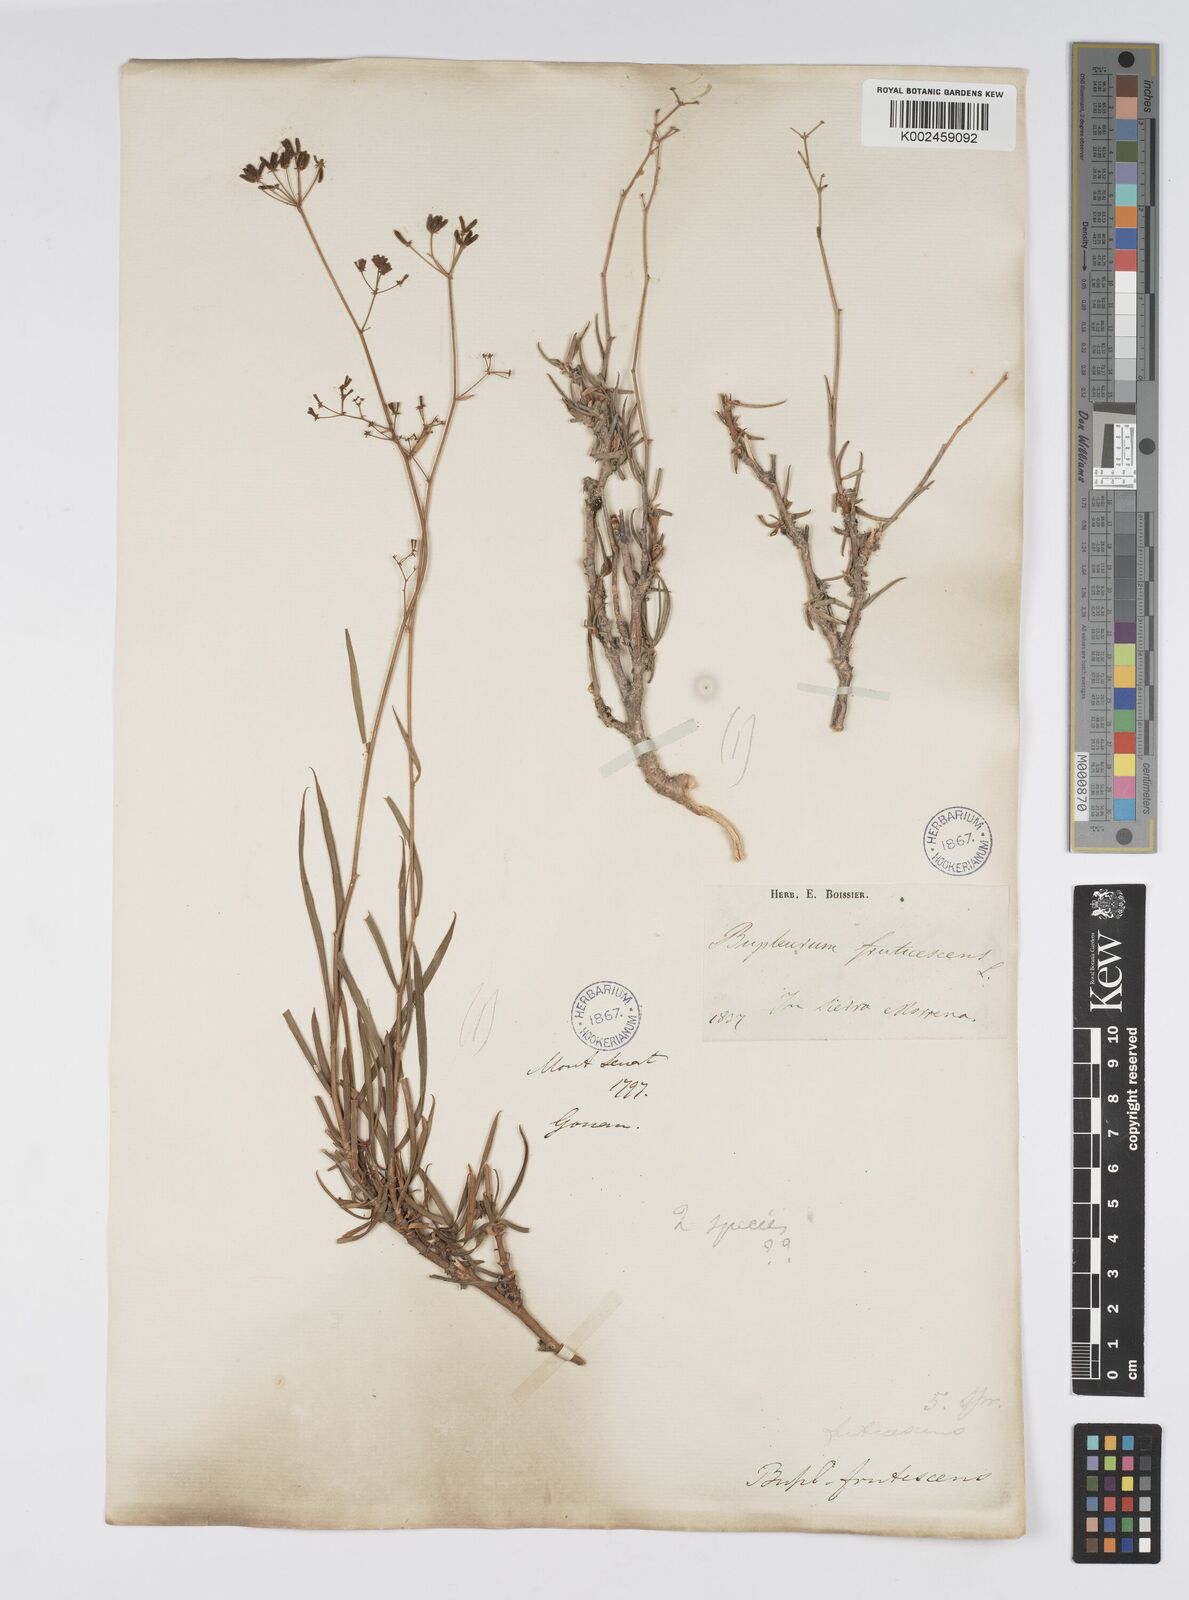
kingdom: Plantae
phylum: Tracheophyta
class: Magnoliopsida
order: Apiales
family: Apiaceae
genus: Bupleurum
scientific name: Bupleurum fruticescens
